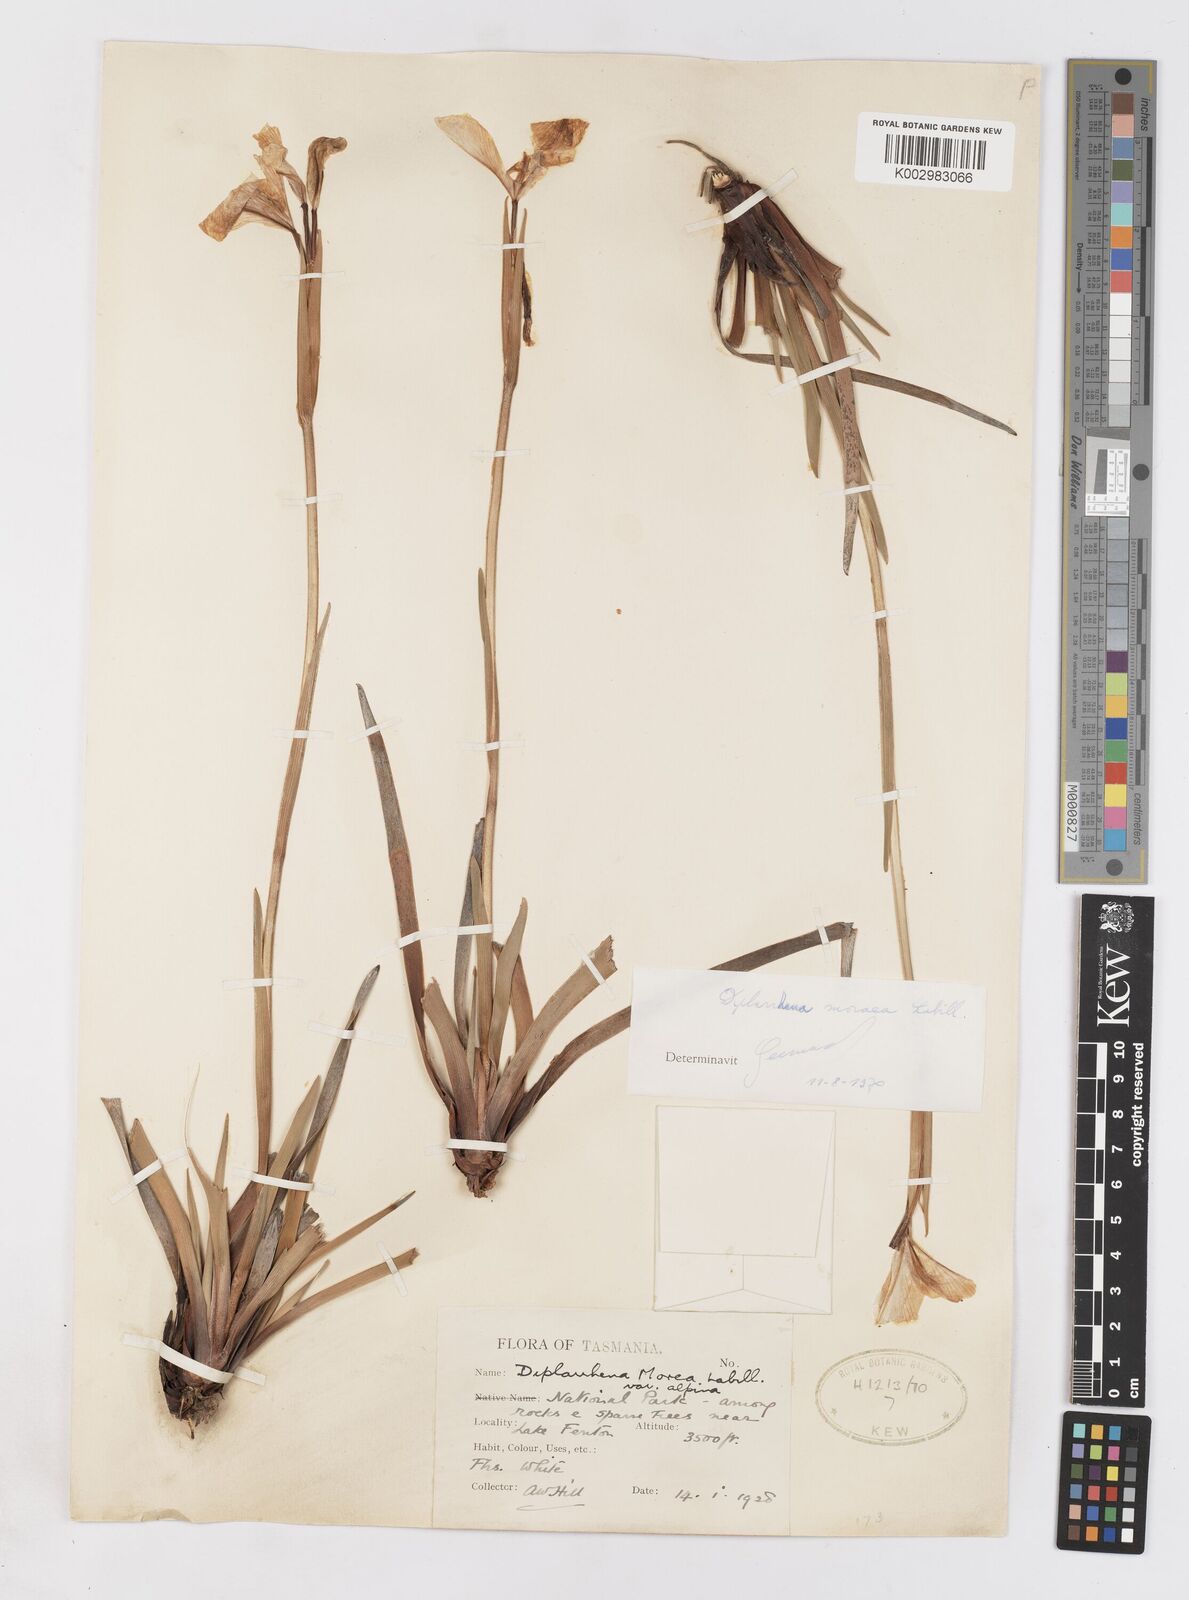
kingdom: Plantae
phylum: Tracheophyta
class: Liliopsida
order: Asparagales
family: Iridaceae
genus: Diplarrena
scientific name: Diplarrena moraea
